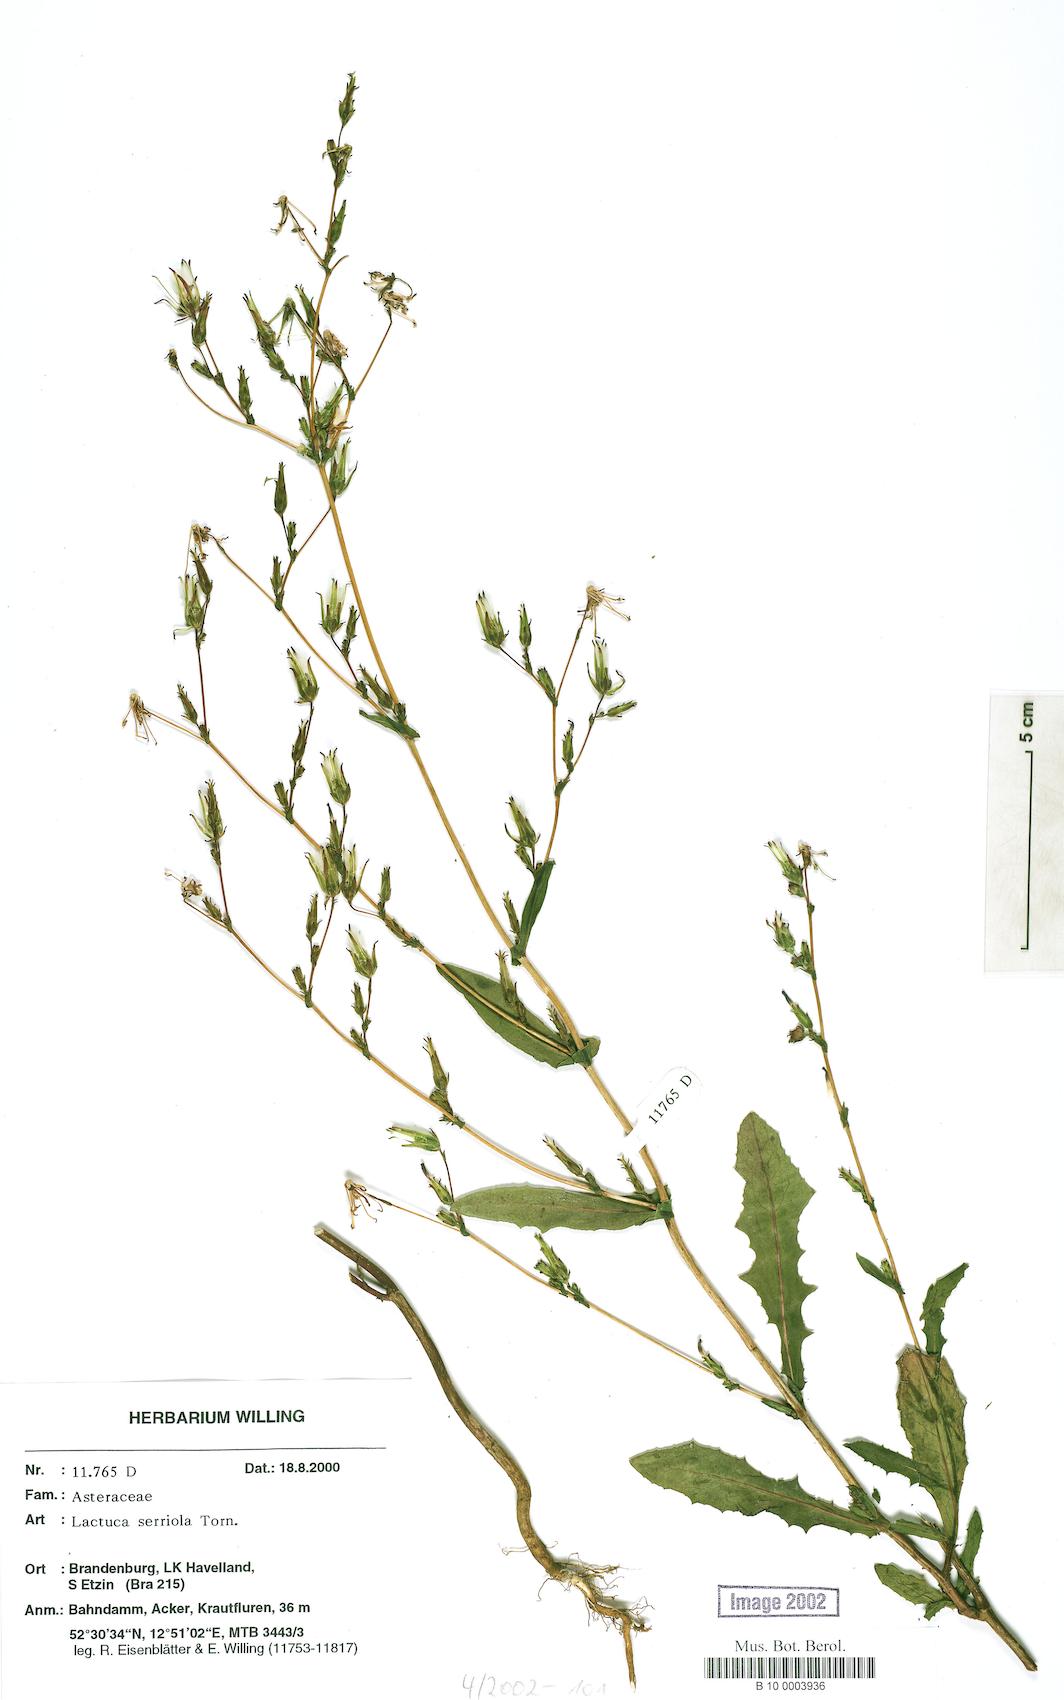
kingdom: Plantae
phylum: Tracheophyta
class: Magnoliopsida
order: Asterales
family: Asteraceae
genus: Lactuca
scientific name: Lactuca serriola
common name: Prickly lettuce
